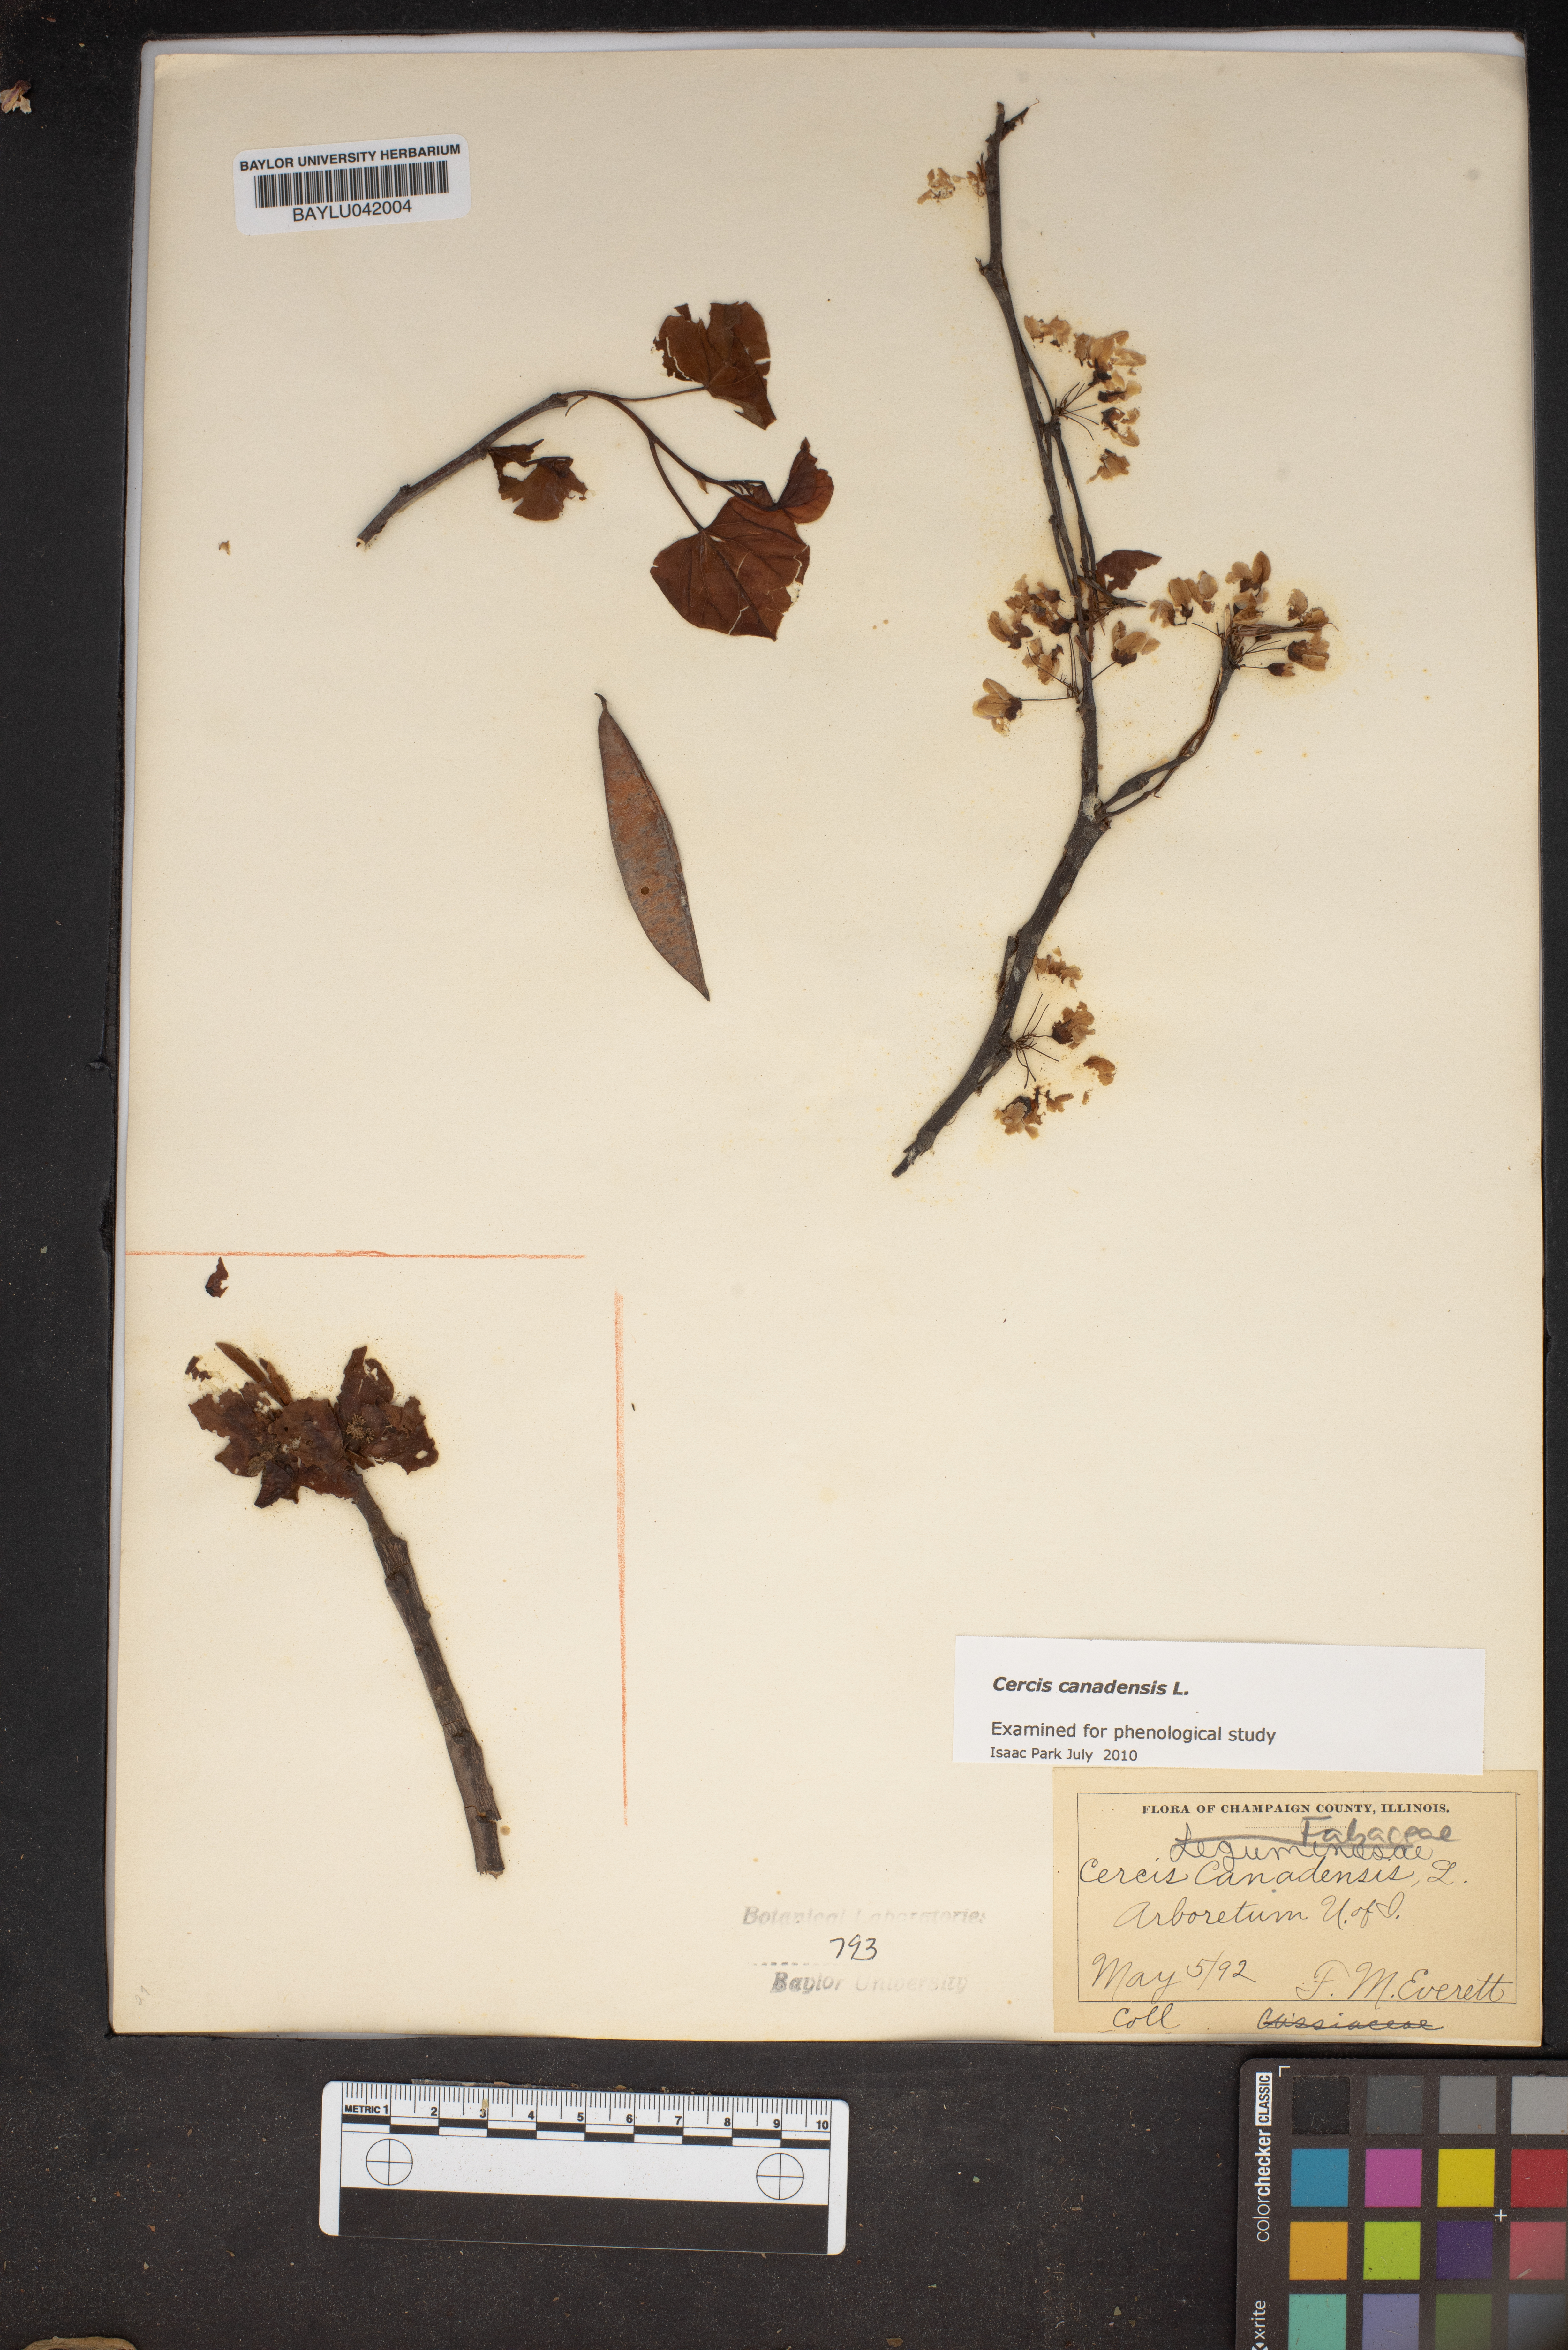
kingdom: Plantae
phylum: Tracheophyta
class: Magnoliopsida
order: Fabales
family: Fabaceae
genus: Cercis
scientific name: Cercis canadensis
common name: Eastern redbud
